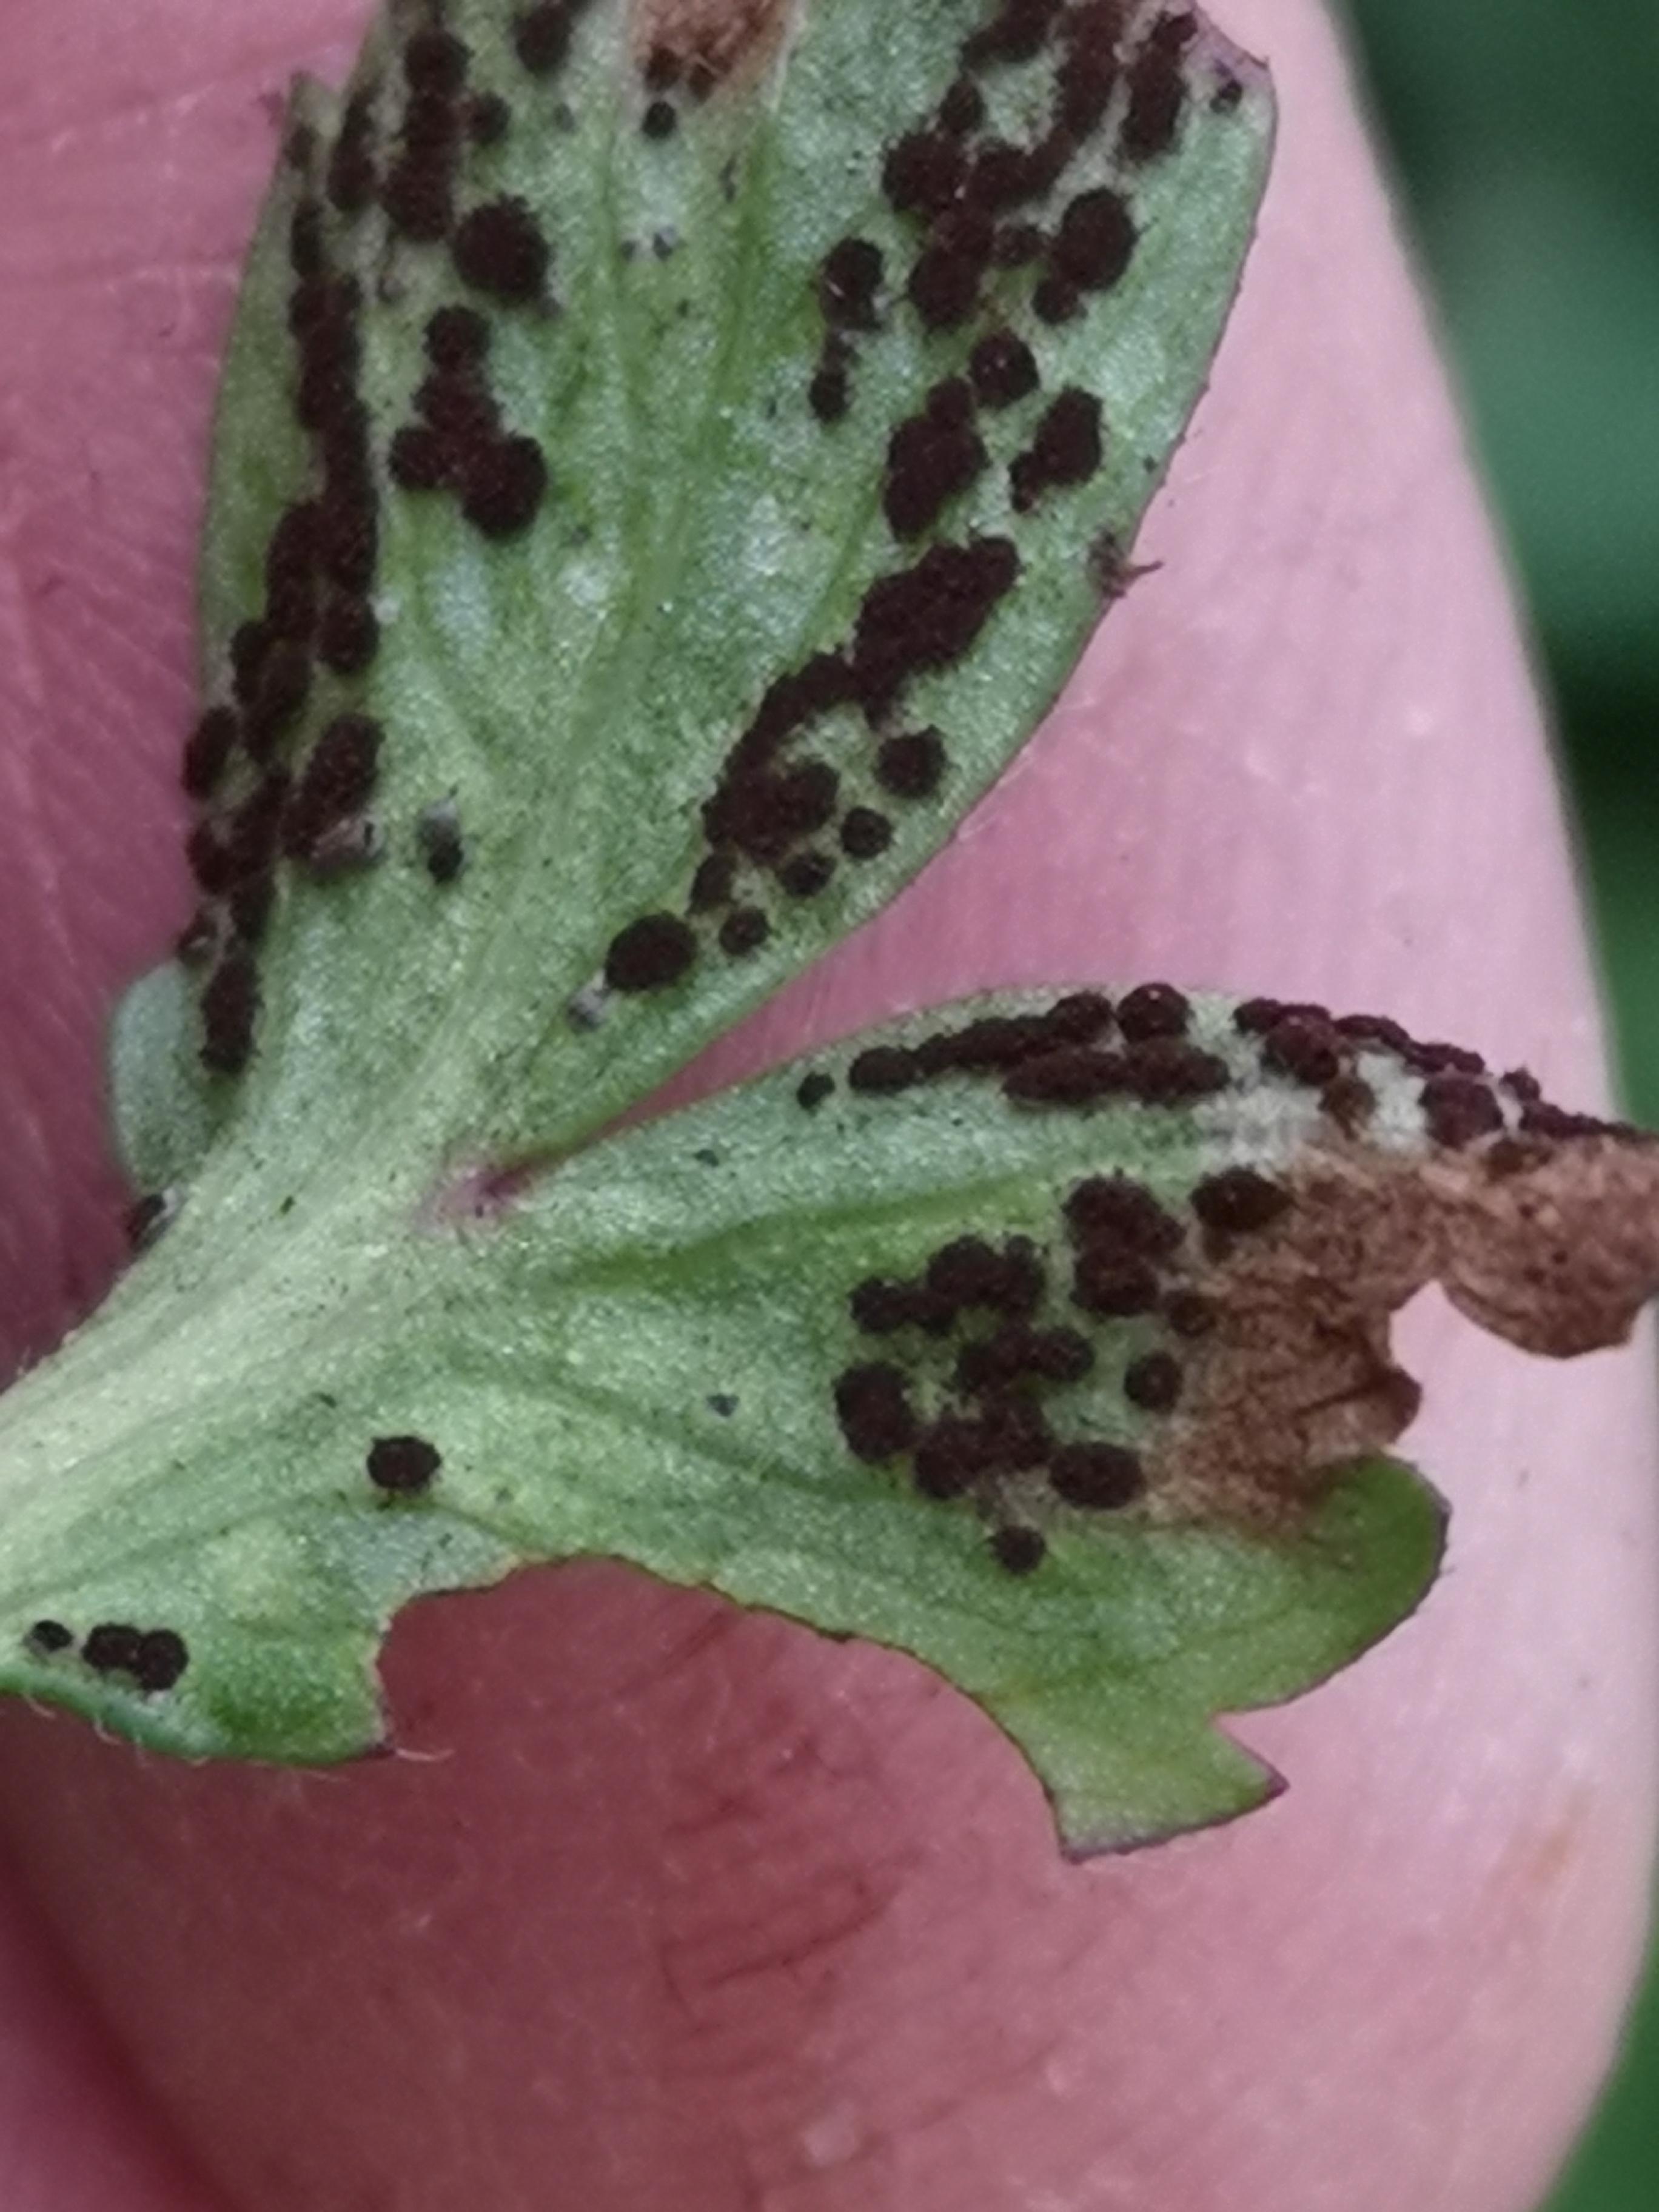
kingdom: Fungi
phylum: Basidiomycota
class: Pucciniomycetes
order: Pucciniales
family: Tranzscheliaceae
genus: Tranzschelia
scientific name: Tranzschelia anemones
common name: anemone-knæksporerust
